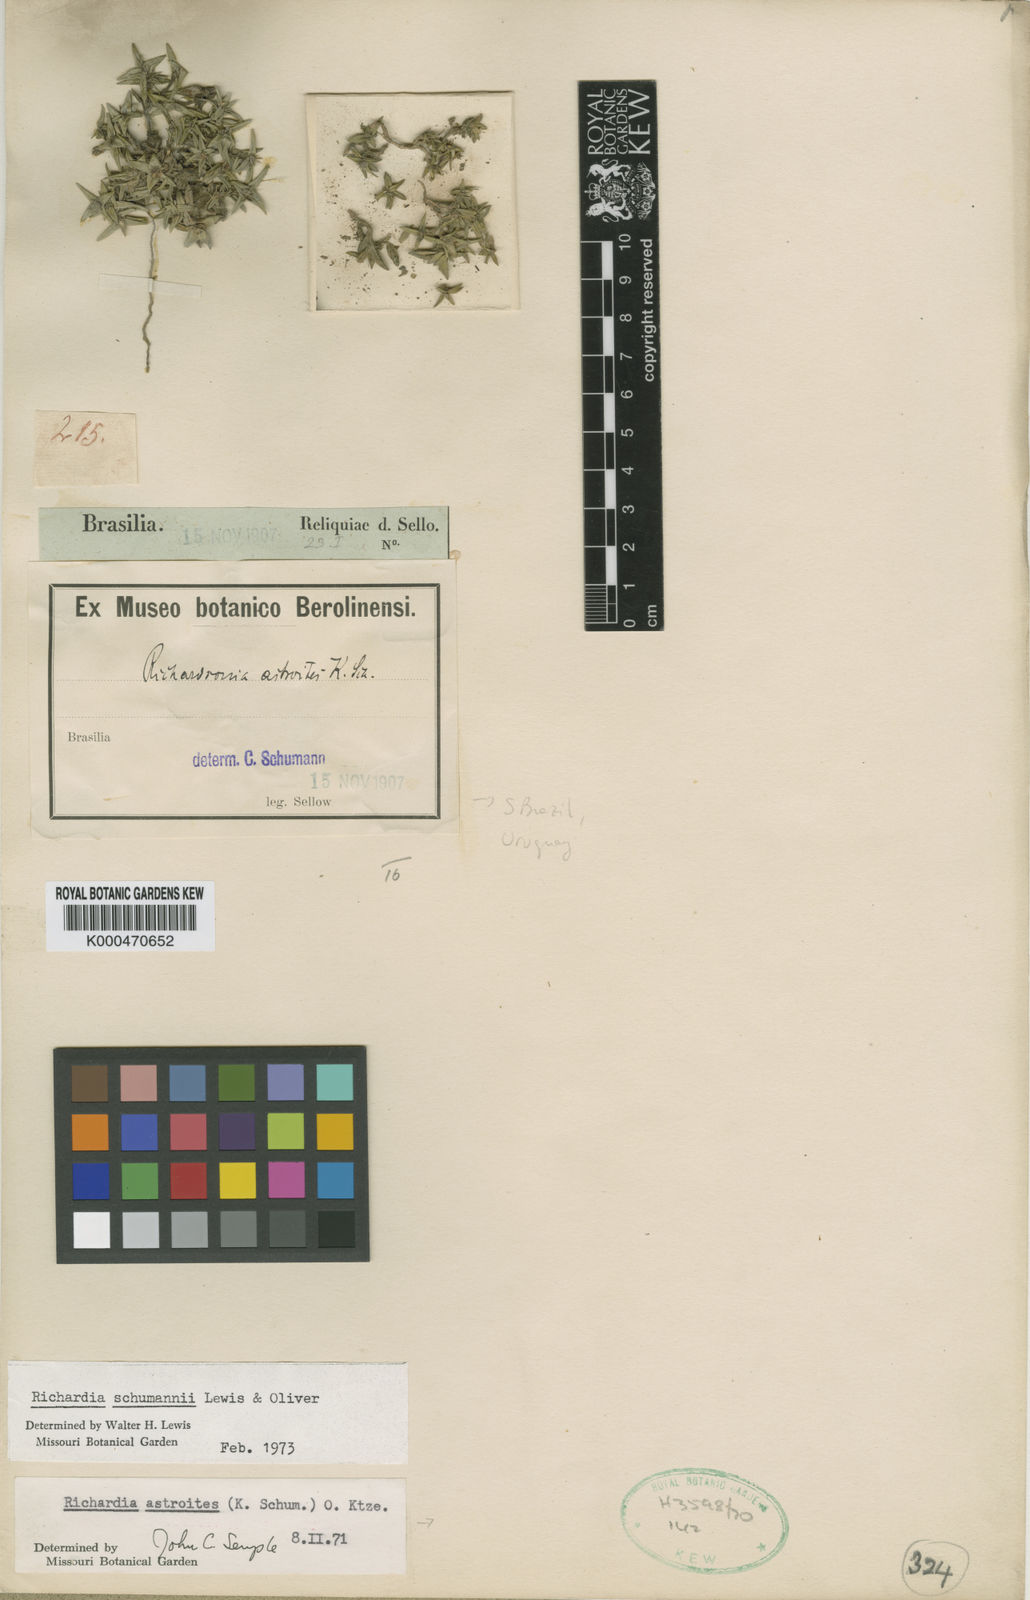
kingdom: Plantae
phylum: Tracheophyta
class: Magnoliopsida
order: Gentianales
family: Rubiaceae
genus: Richardia
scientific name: Richardia schumannii
